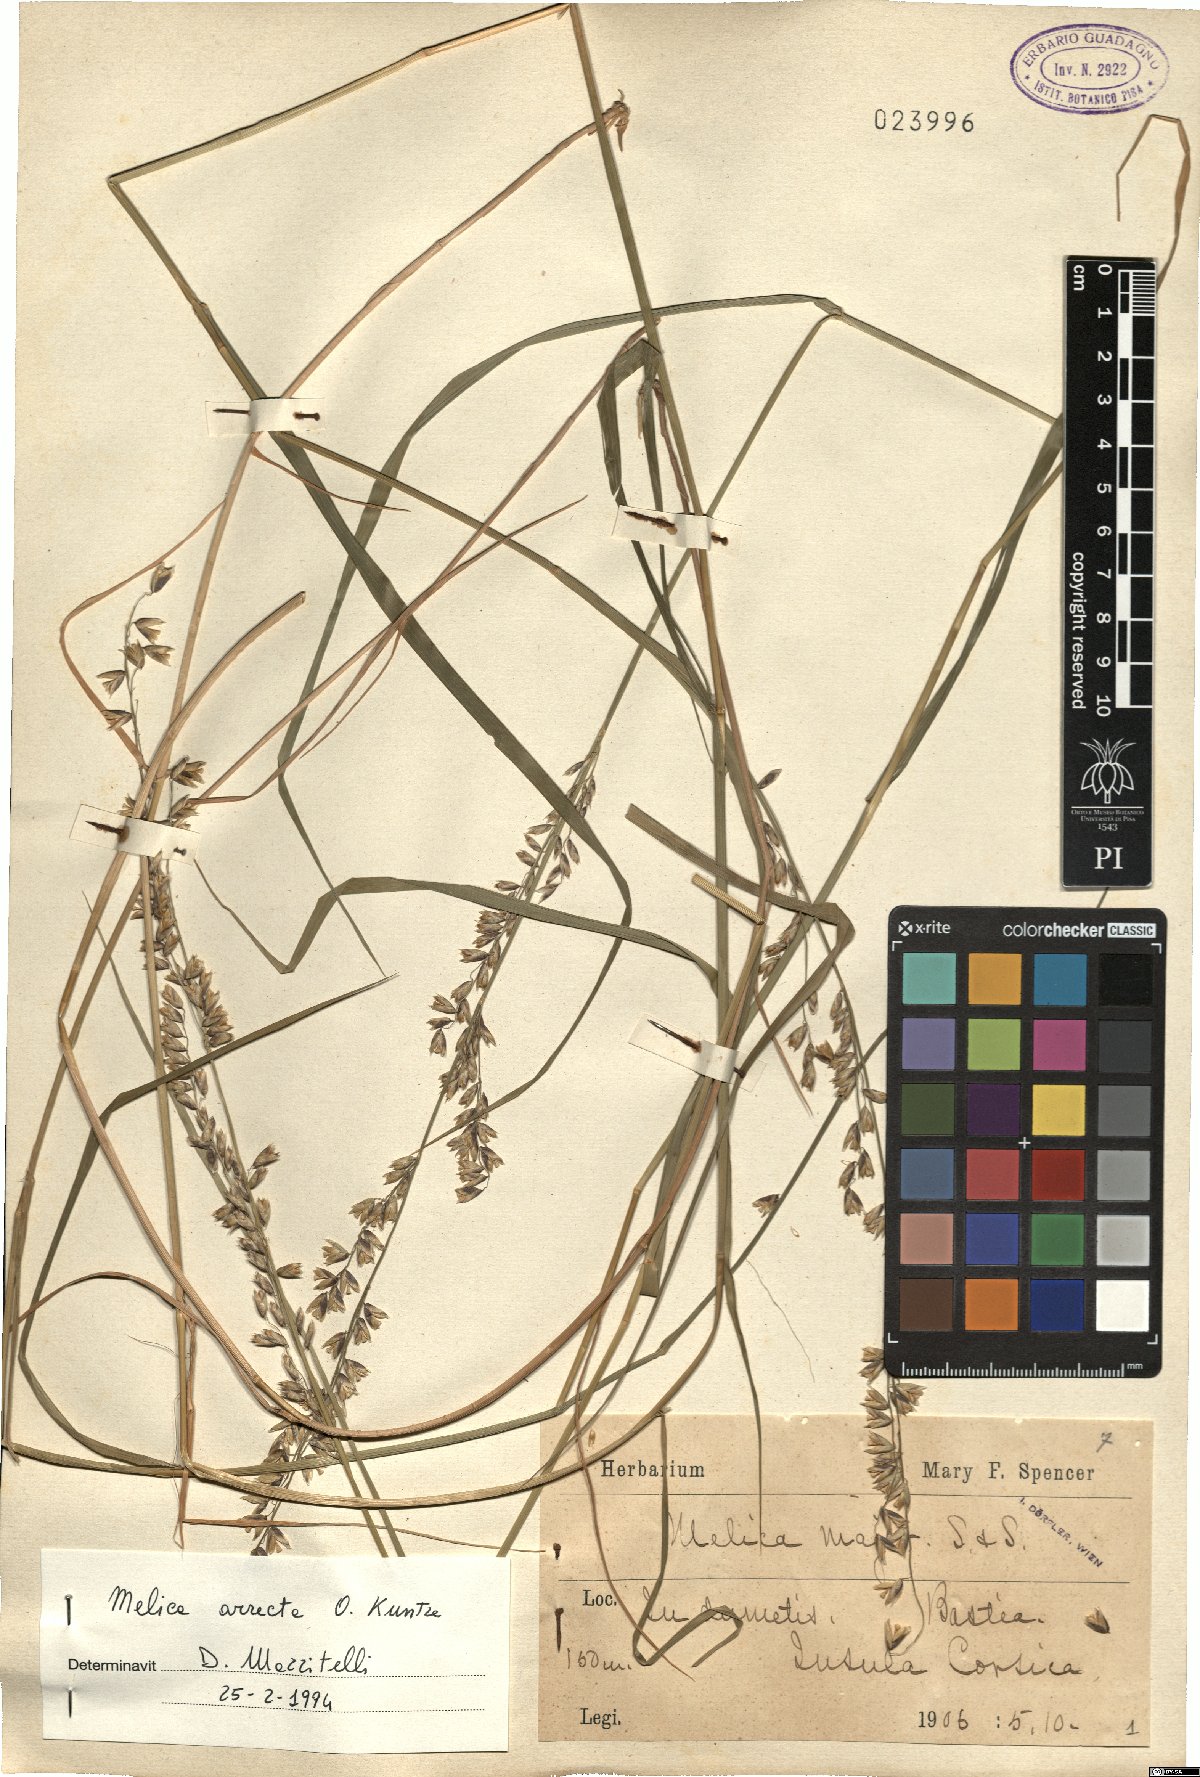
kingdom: Plantae
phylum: Tracheophyta
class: Liliopsida
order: Poales
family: Poaceae
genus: Melica
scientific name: Melica minuta
